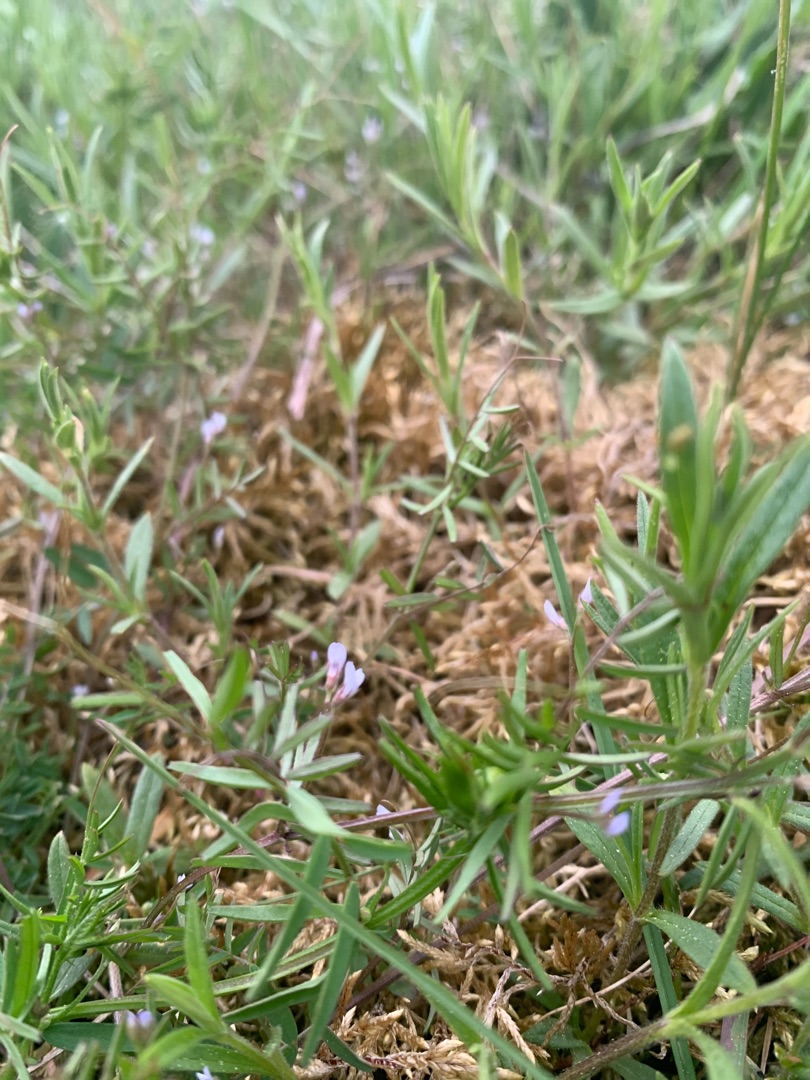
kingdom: Plantae
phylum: Tracheophyta
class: Magnoliopsida
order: Fabales
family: Fabaceae
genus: Vicia
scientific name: Vicia hirsuta
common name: Tofrøet vikke
